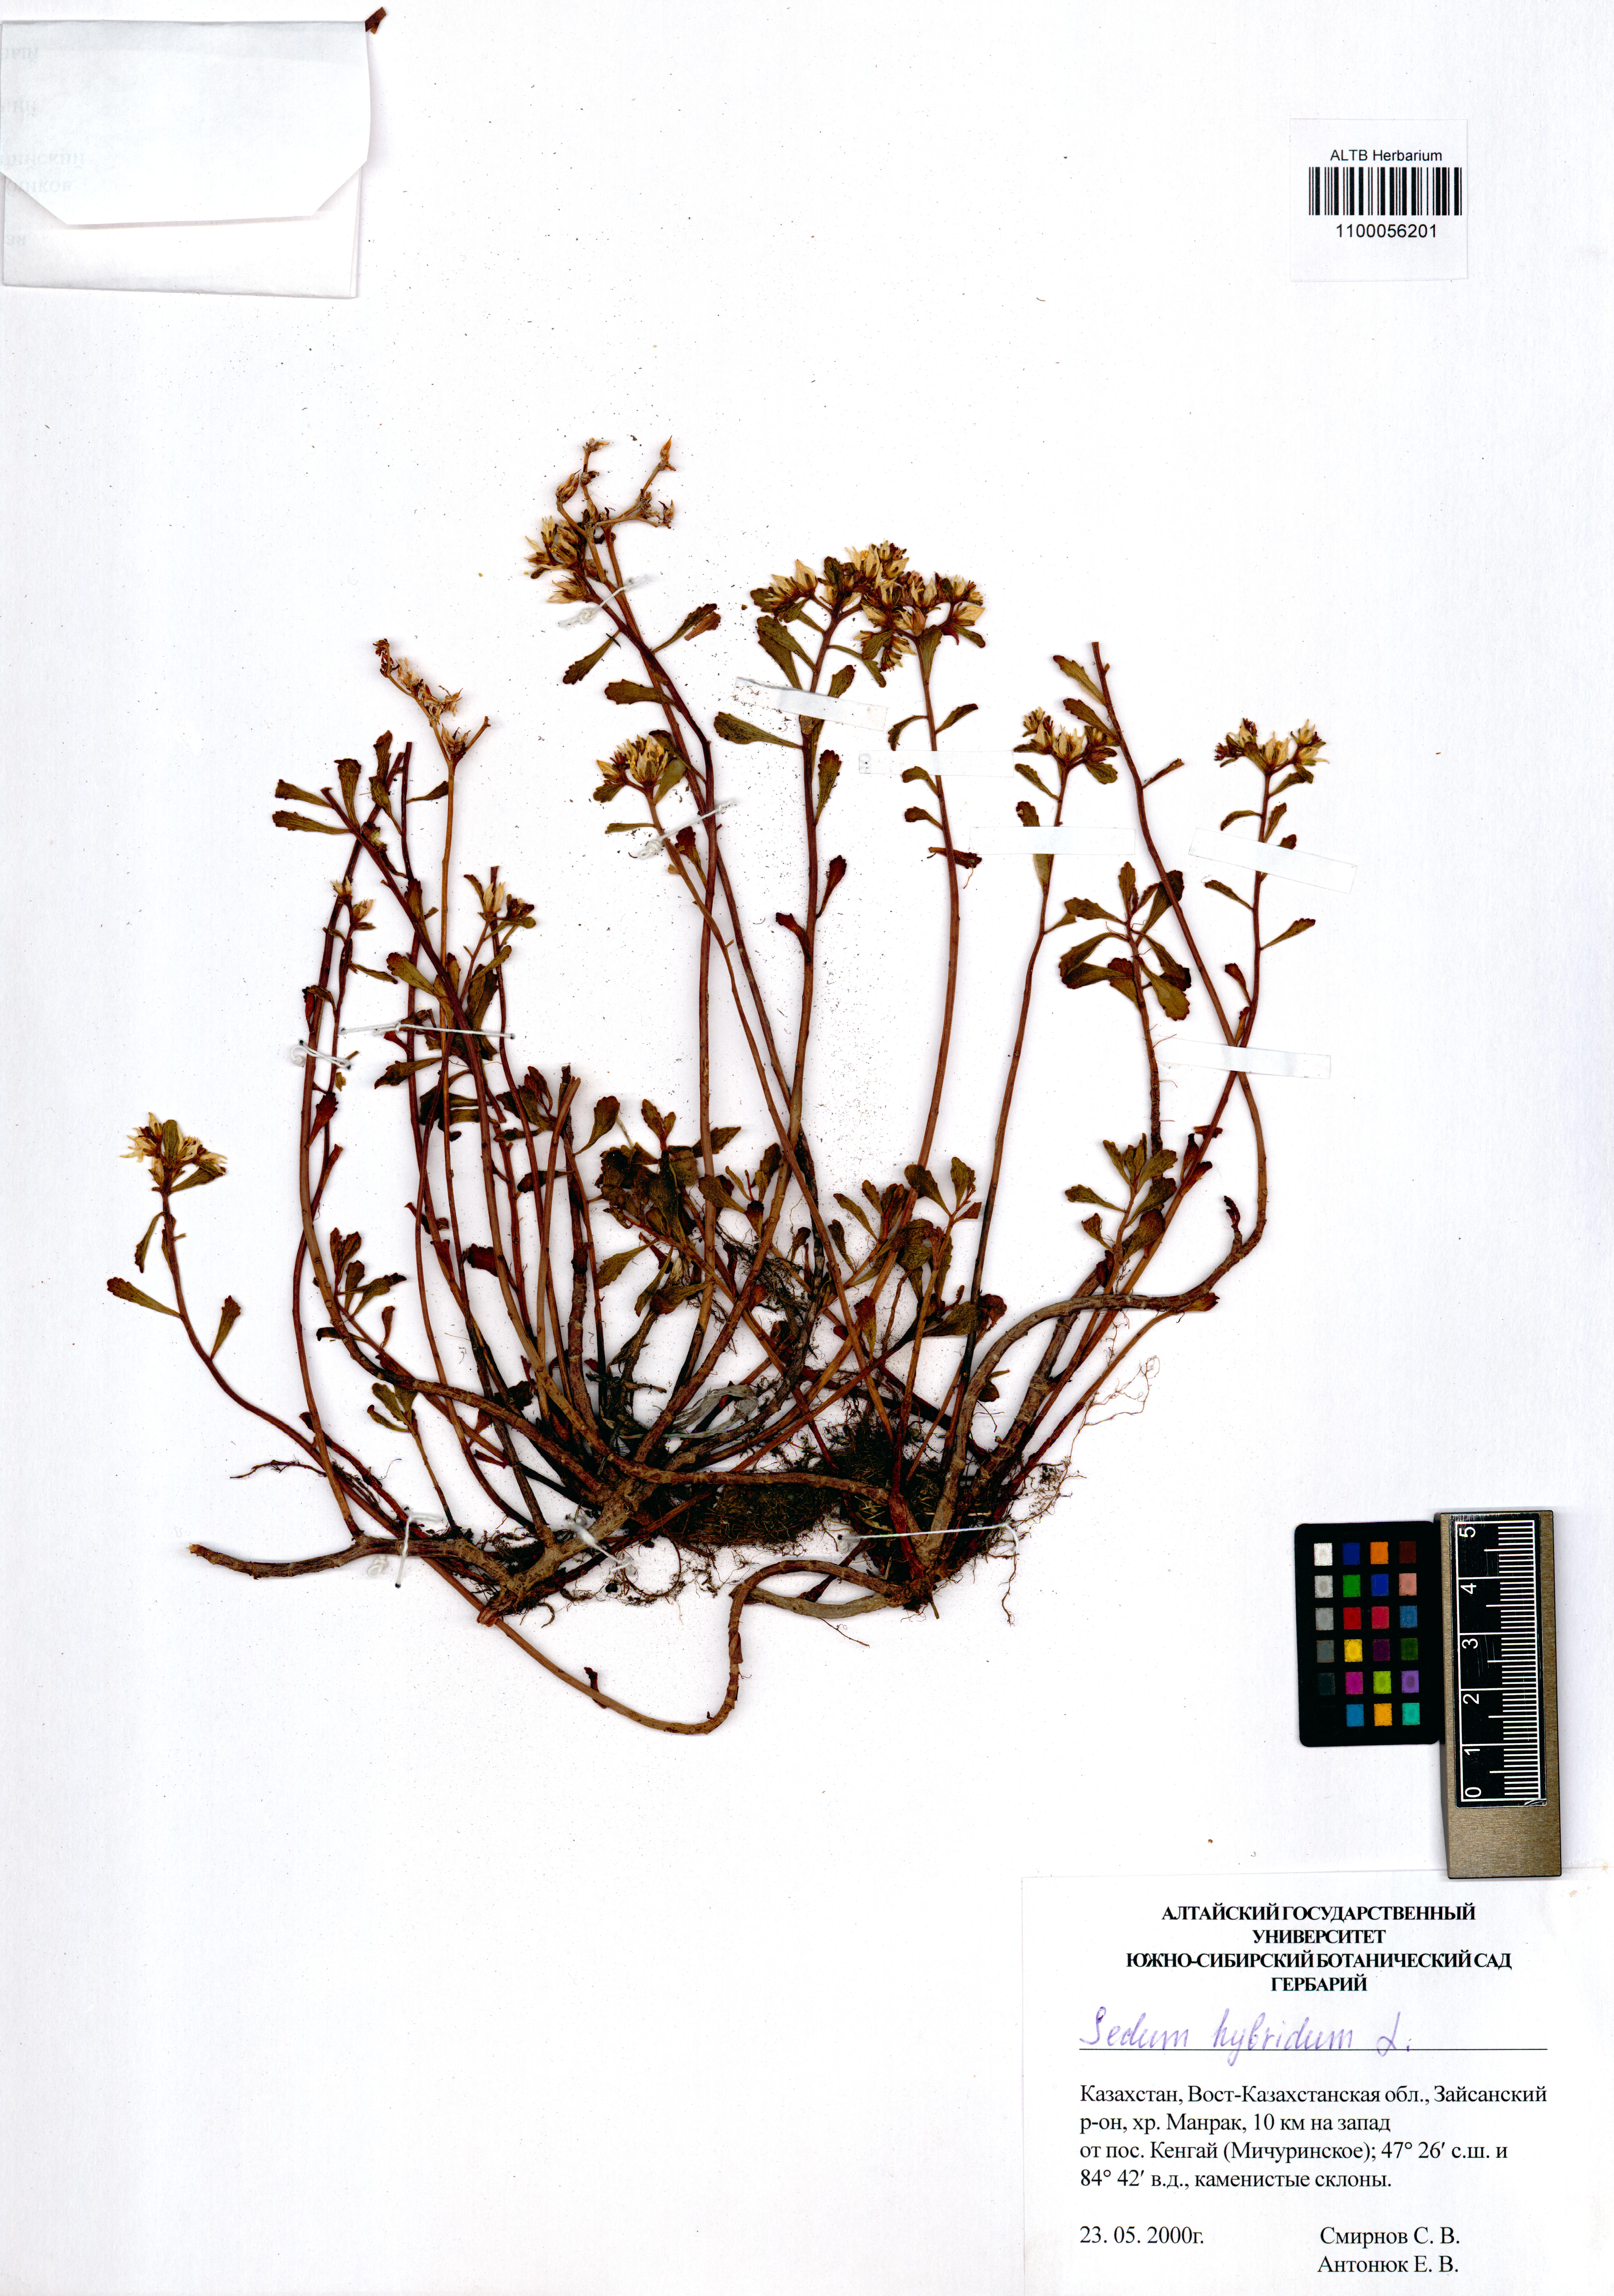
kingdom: Plantae
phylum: Tracheophyta
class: Magnoliopsida
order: Saxifragales
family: Crassulaceae
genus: Phedimus
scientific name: Phedimus hybridus
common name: Hybrid stonecrop
